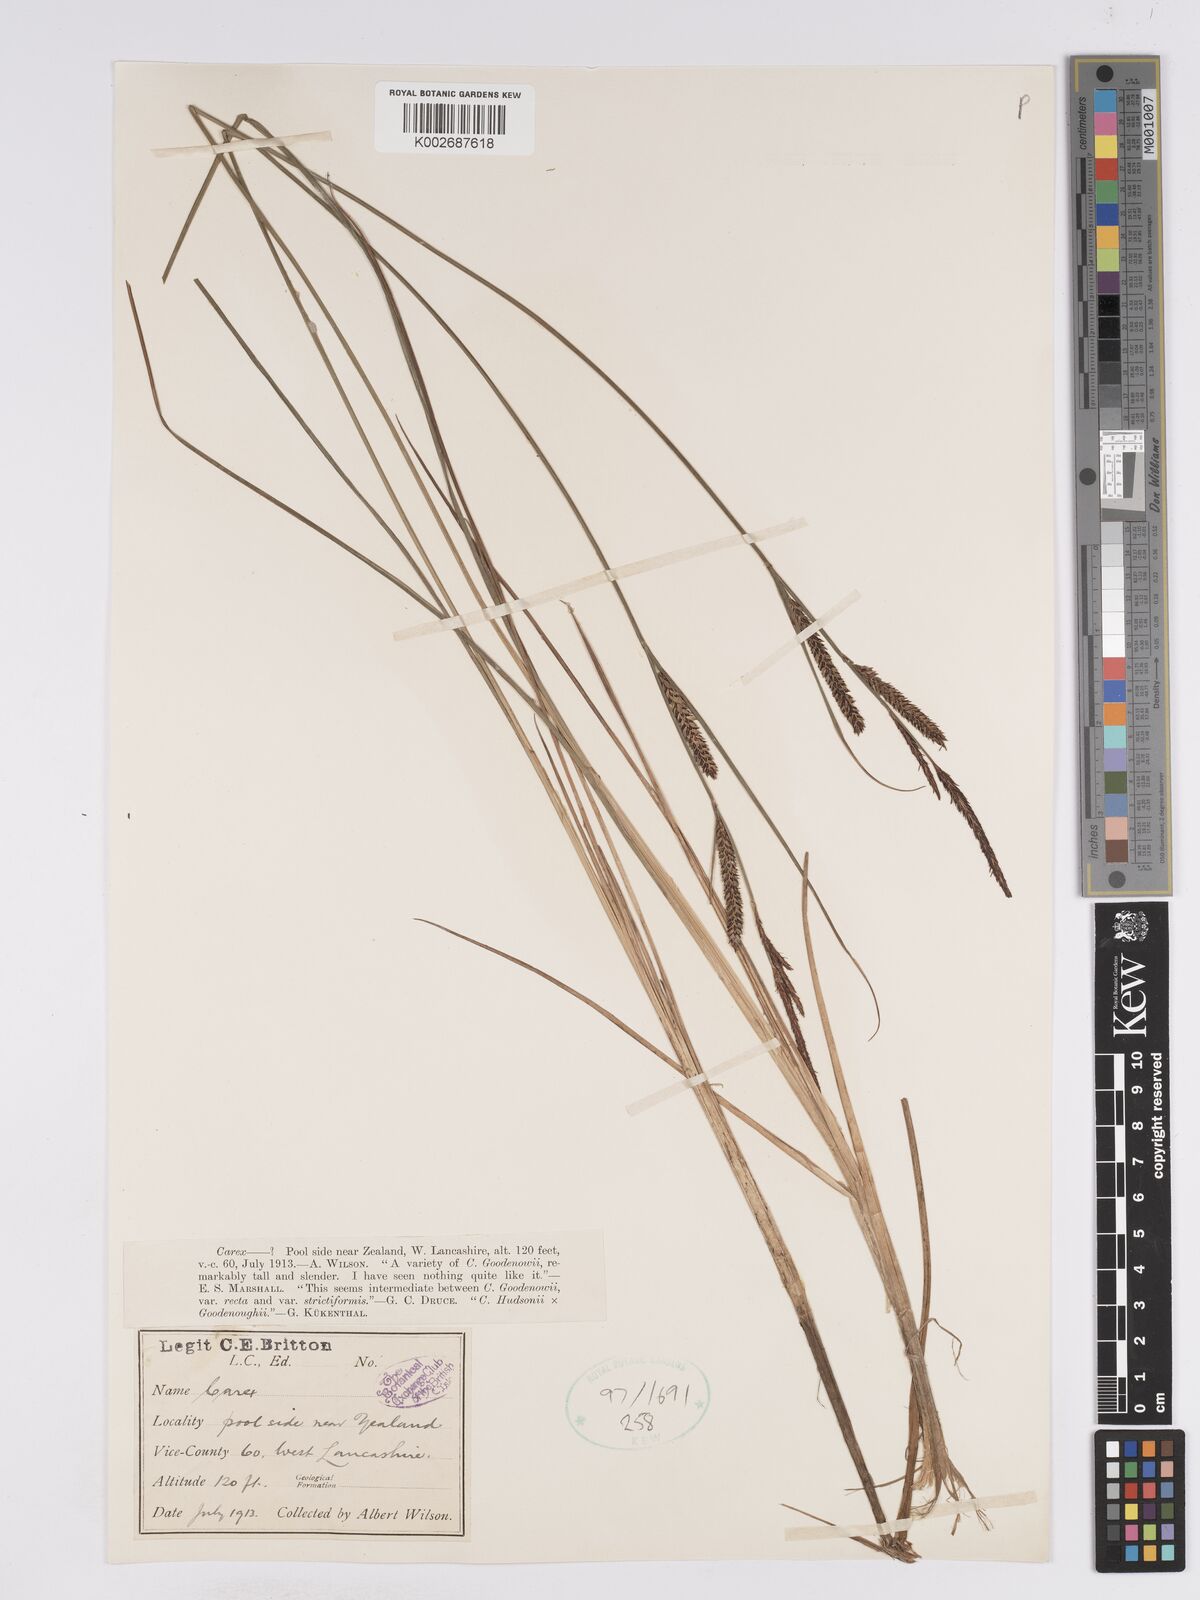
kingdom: Plantae
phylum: Tracheophyta
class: Liliopsida
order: Poales
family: Cyperaceae
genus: Carex
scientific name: Carex elata
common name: Tufted sedge
